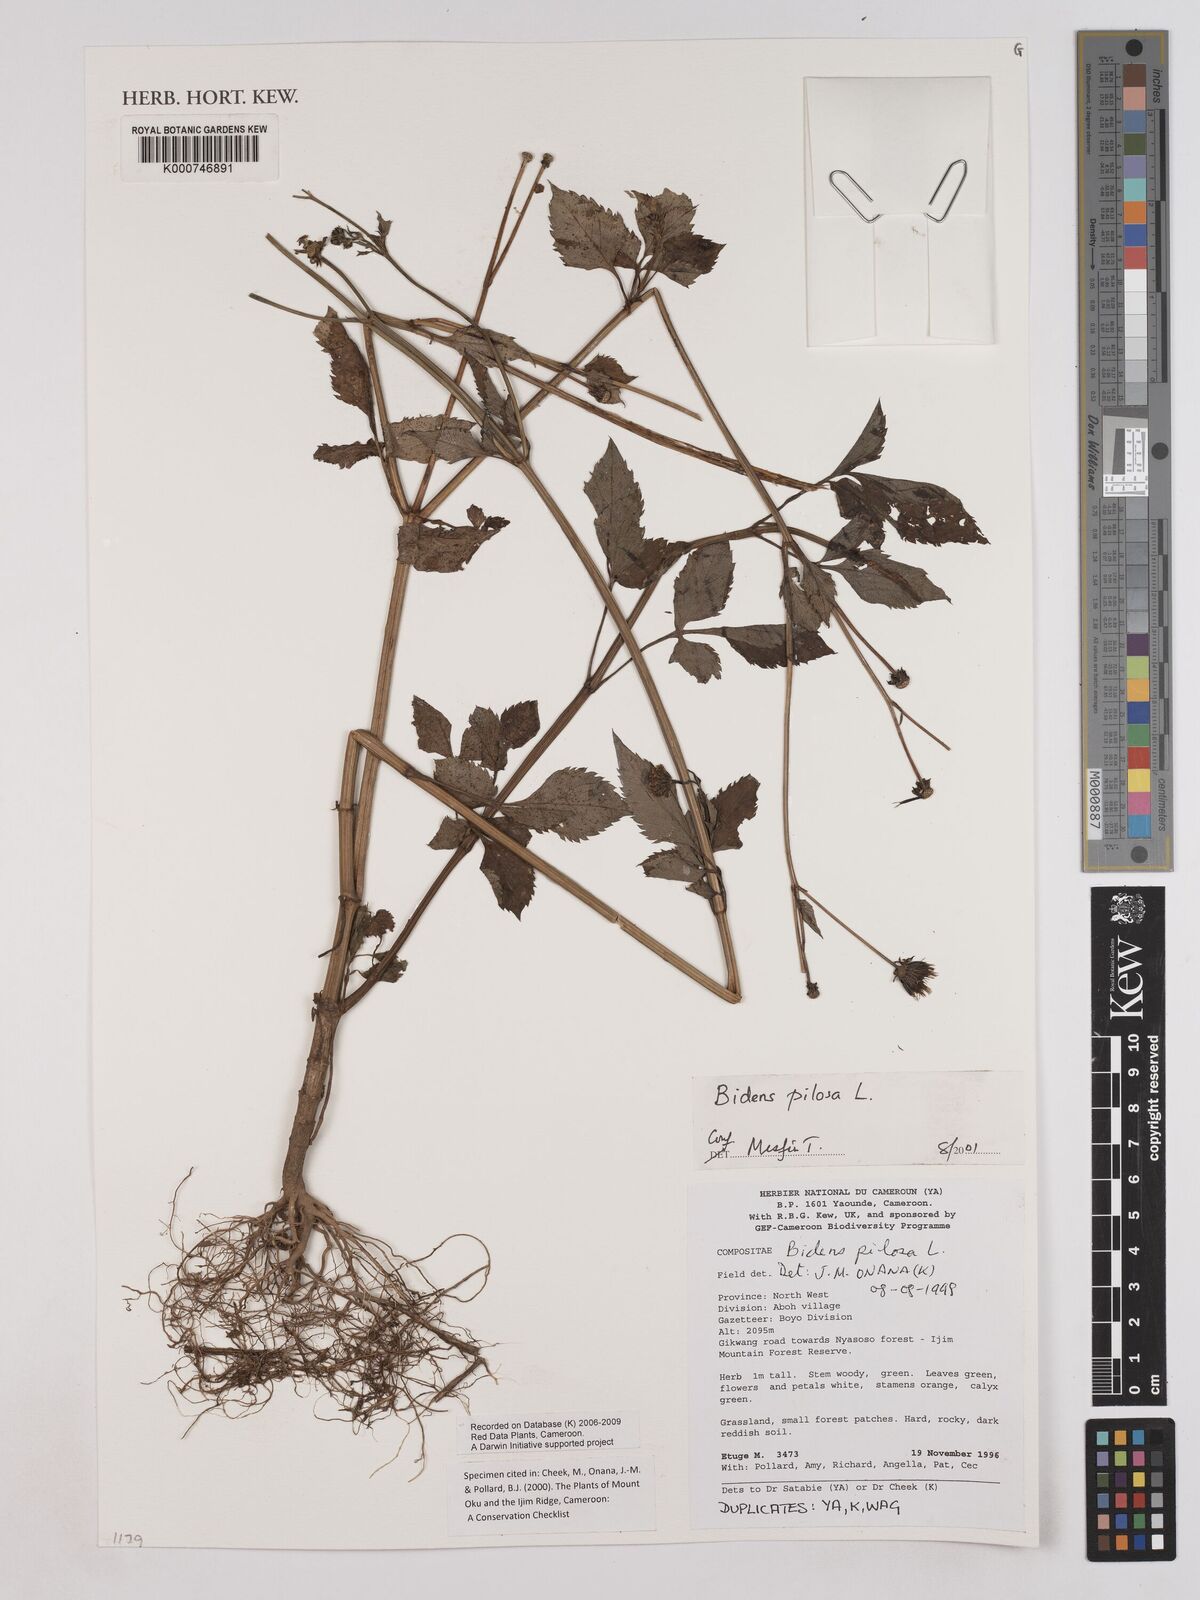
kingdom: Plantae
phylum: Tracheophyta
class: Magnoliopsida
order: Asterales
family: Asteraceae
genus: Bidens
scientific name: Bidens pilosa
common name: Black-jack
